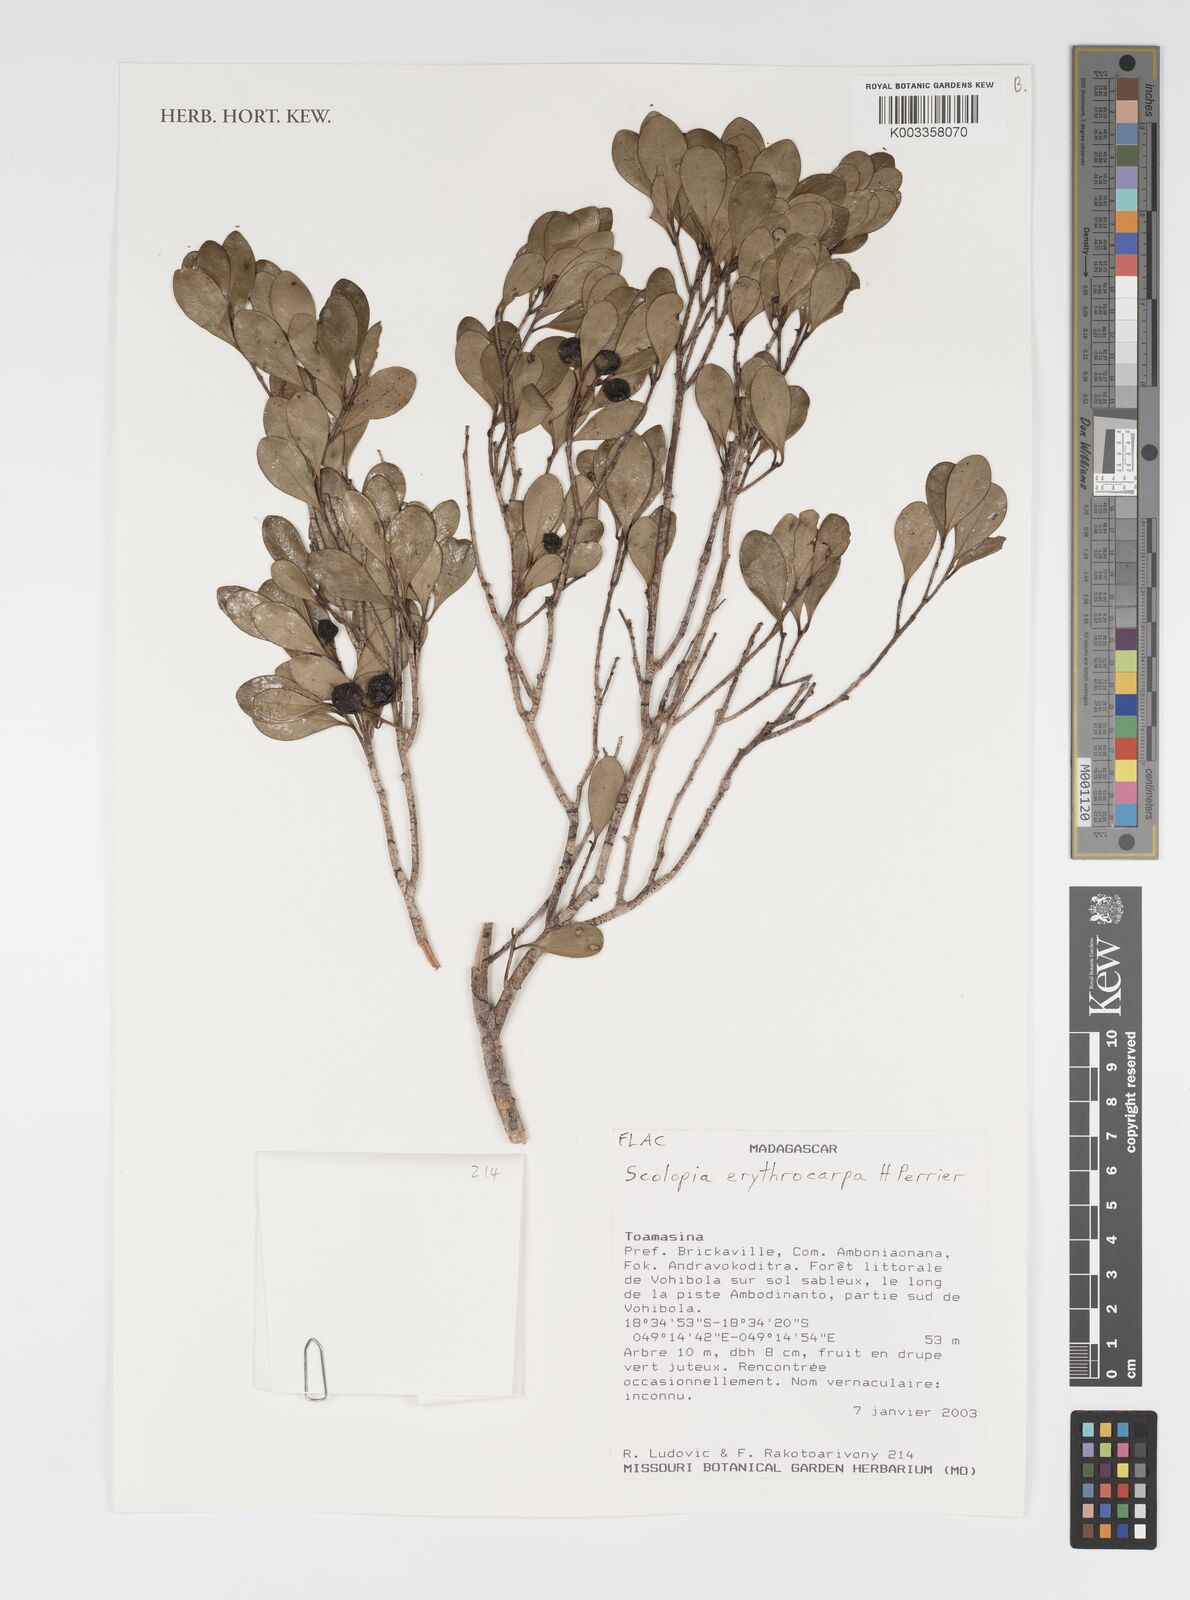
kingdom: Plantae
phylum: Tracheophyta
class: Magnoliopsida
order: Malpighiales
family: Salicaceae
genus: Scolopia
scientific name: Scolopia erythrocarpa
